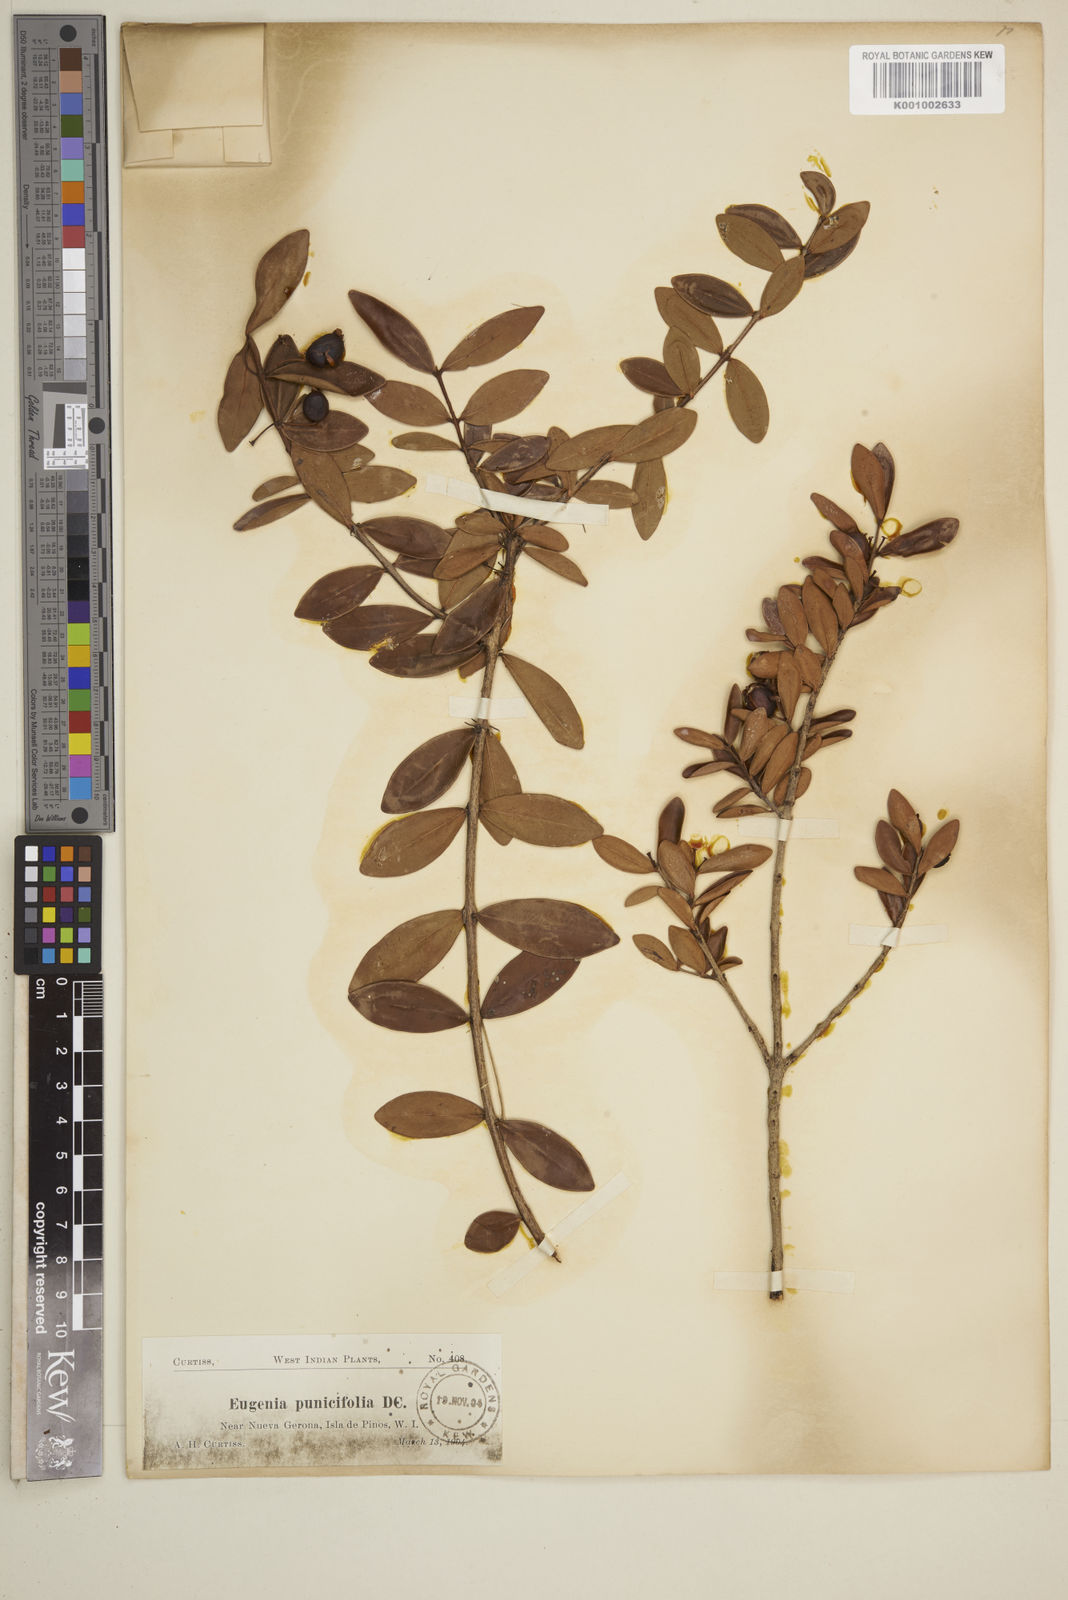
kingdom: Plantae
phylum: Tracheophyta
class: Magnoliopsida
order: Myrtales
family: Myrtaceae
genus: Eugenia
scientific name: Eugenia
